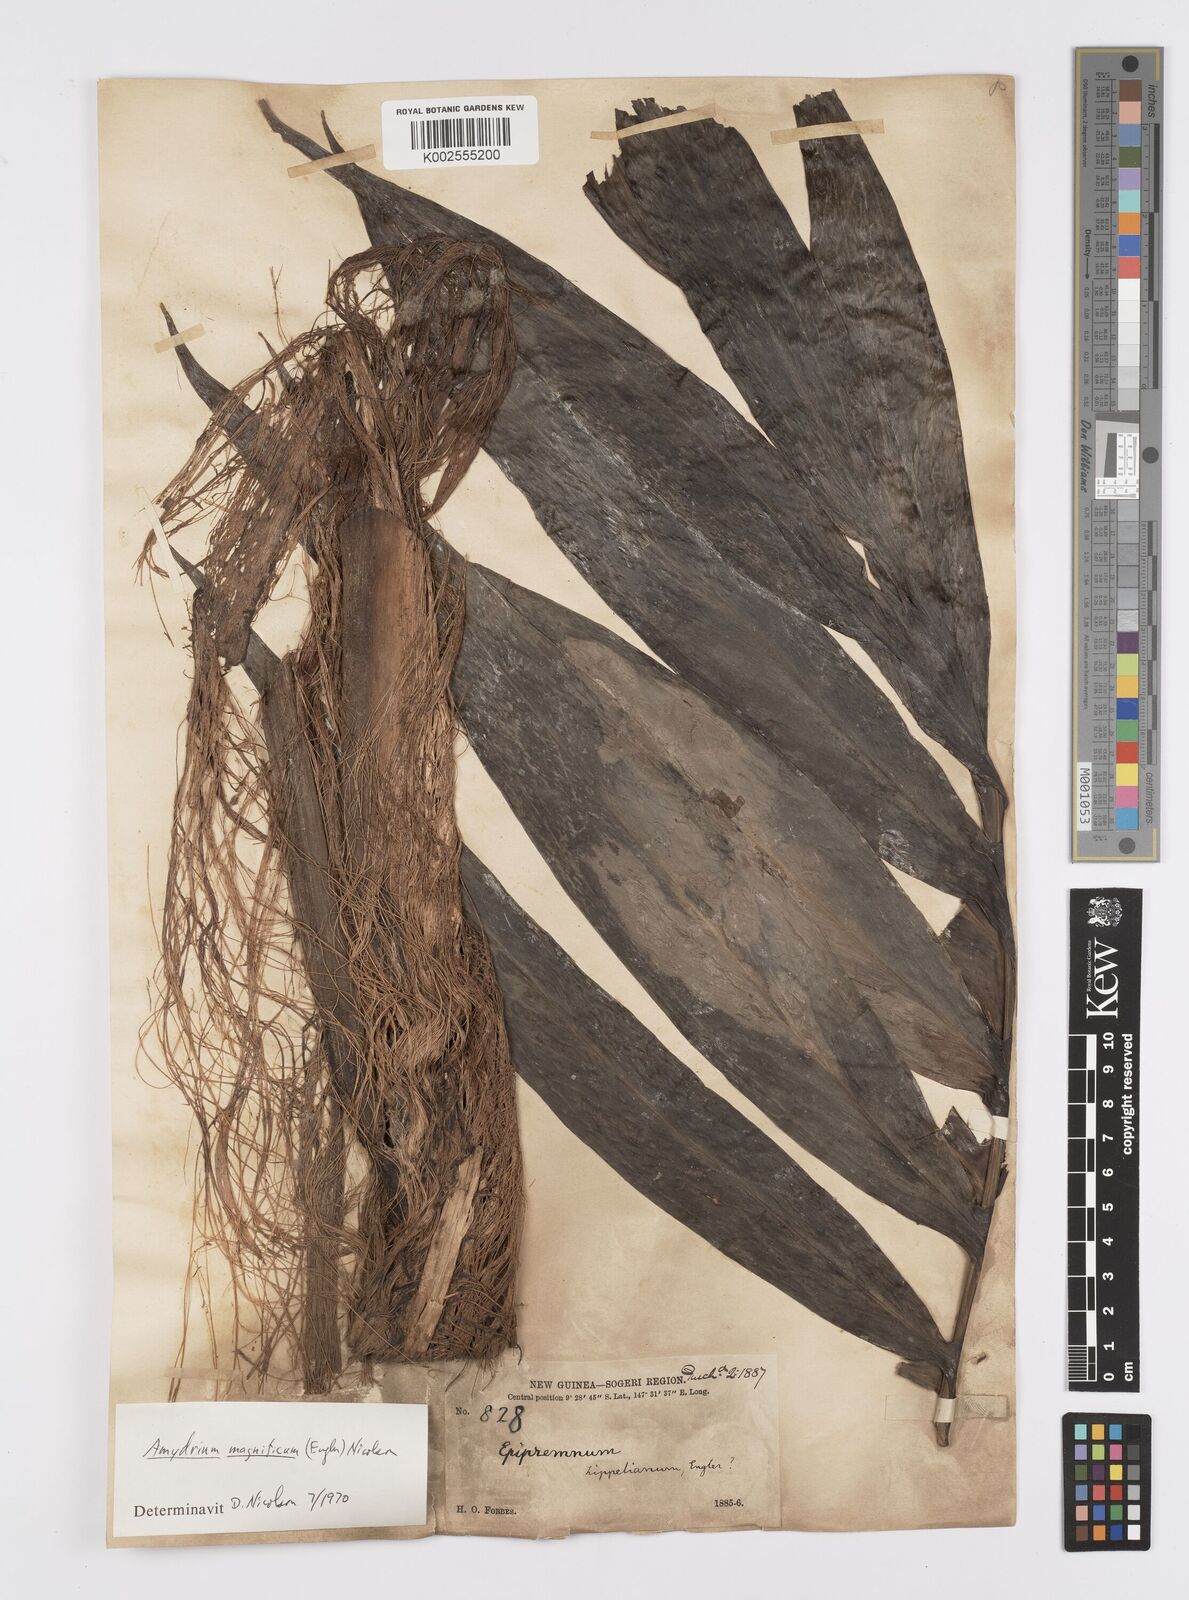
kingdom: Plantae
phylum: Tracheophyta
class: Liliopsida
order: Alismatales
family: Araceae
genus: Amydrium
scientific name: Amydrium zippelianum
